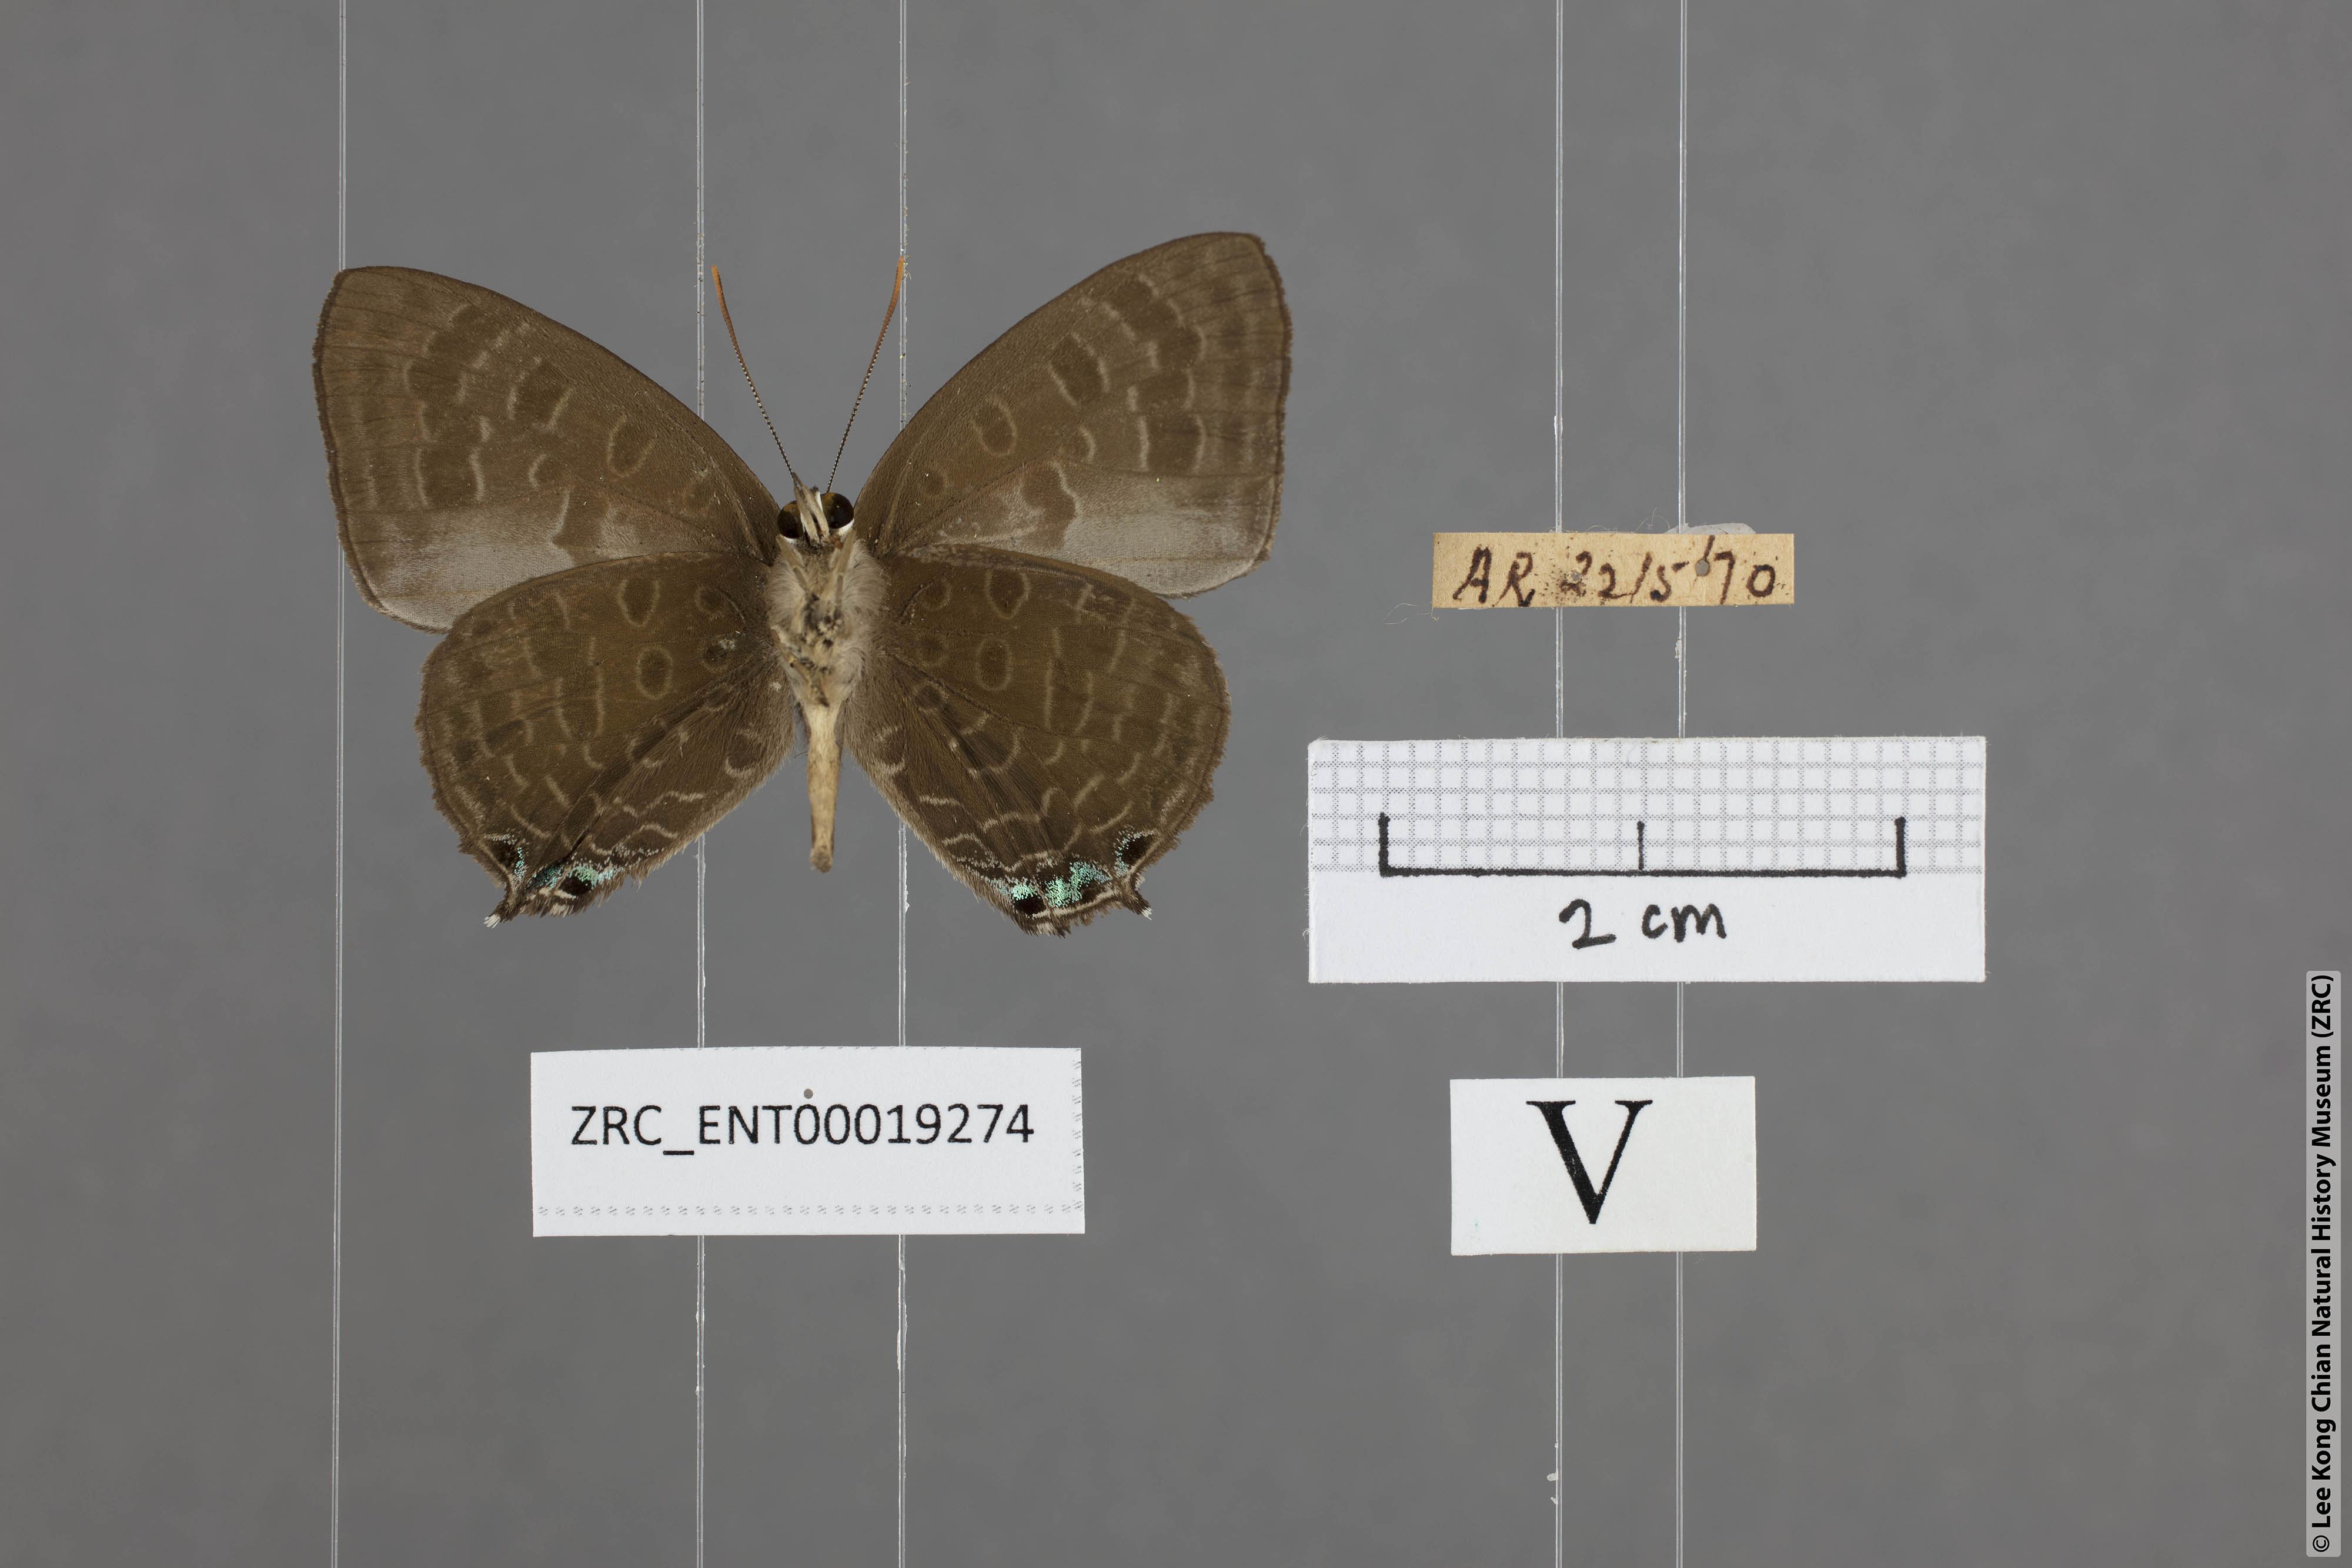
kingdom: Animalia
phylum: Arthropoda
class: Insecta
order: Lepidoptera
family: Lycaenidae
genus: Arhopala
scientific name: Arhopala aurea
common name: Long-celled oakblue
